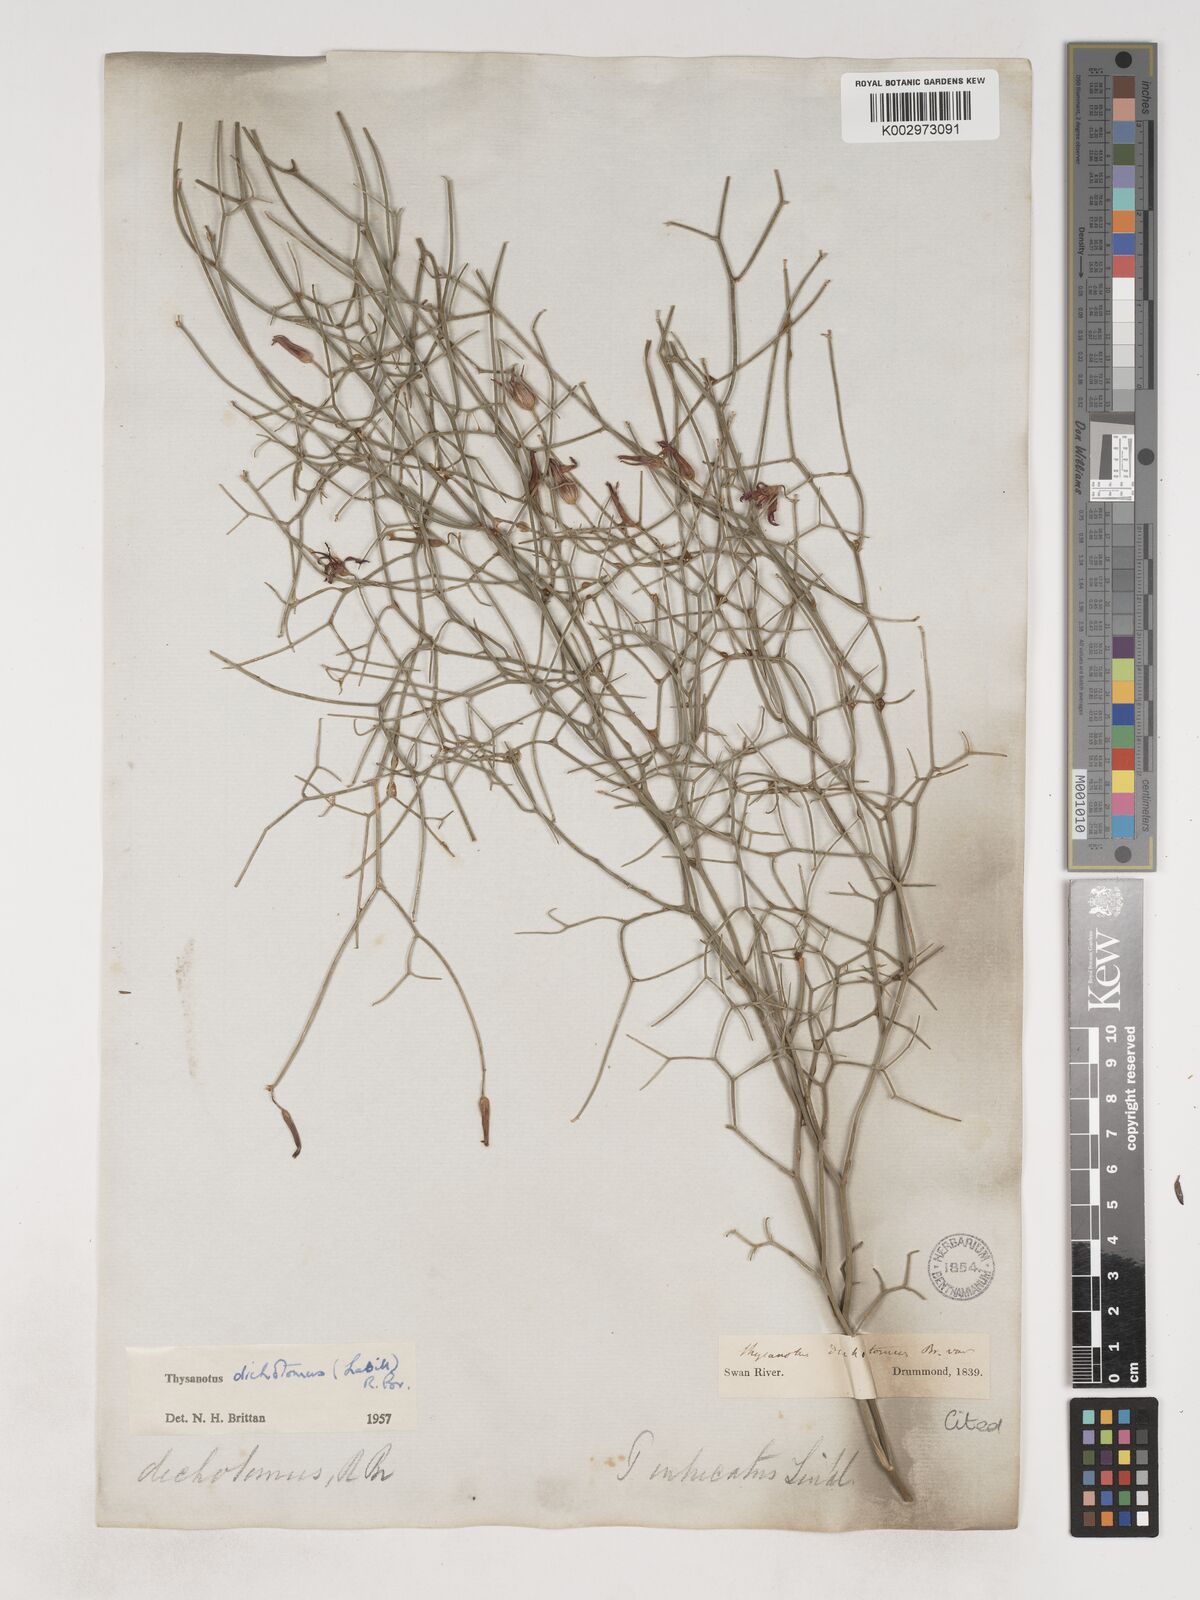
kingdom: Plantae
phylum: Tracheophyta
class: Liliopsida
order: Asparagales
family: Asparagaceae
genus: Thysanotus
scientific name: Thysanotus dichotomus
